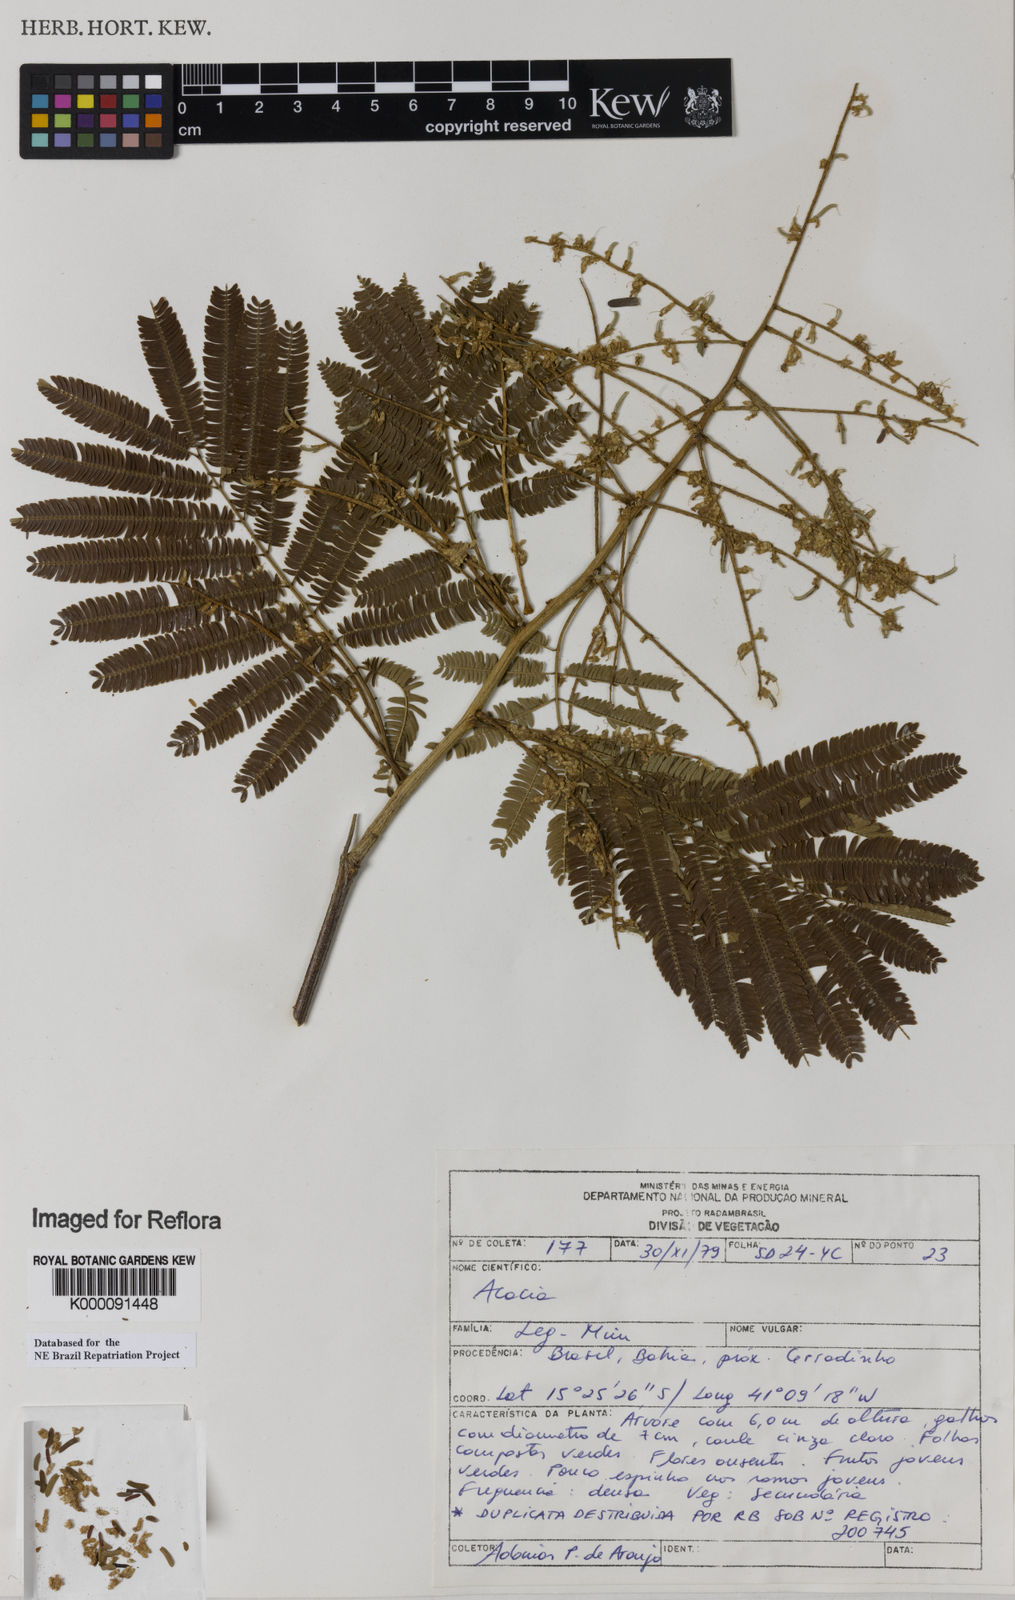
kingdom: Plantae
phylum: Tracheophyta
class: Magnoliopsida
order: Fabales
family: Fabaceae
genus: Acacia
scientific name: Acacia
